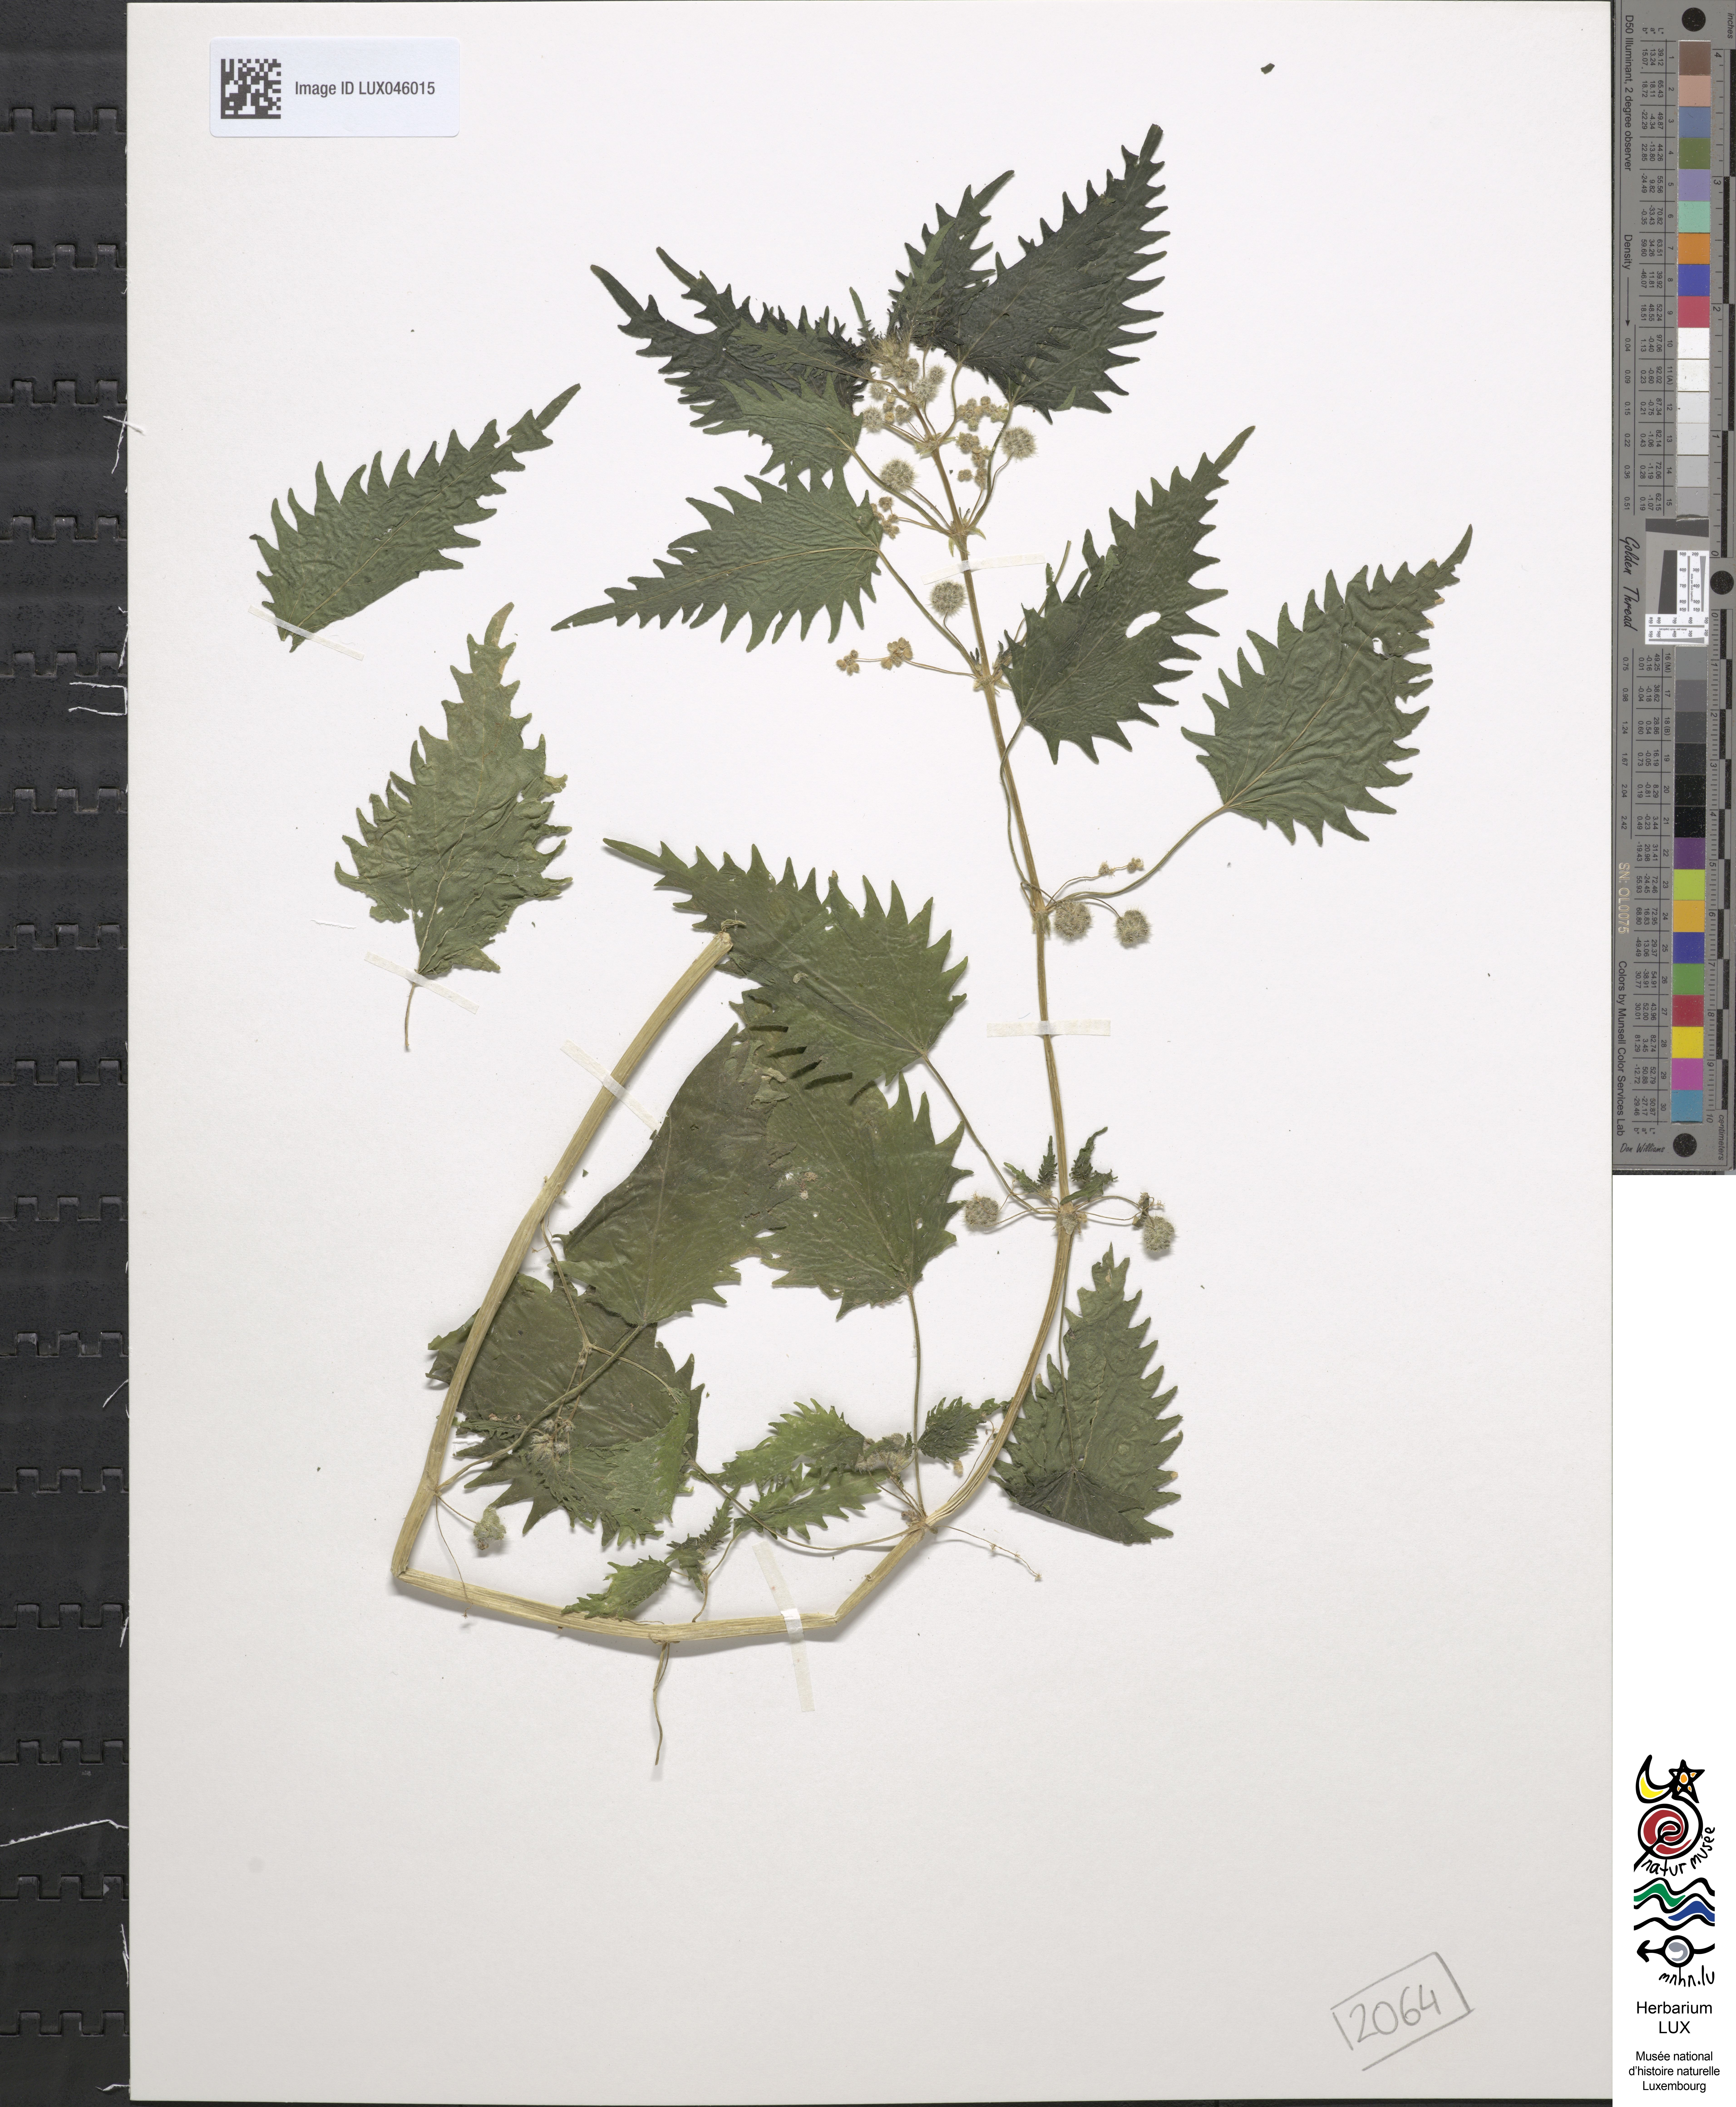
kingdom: Plantae
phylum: Tracheophyta
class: Magnoliopsida
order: Rosales
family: Urticaceae
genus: Urtica
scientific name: Urtica pilulifera
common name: Roman nettle
